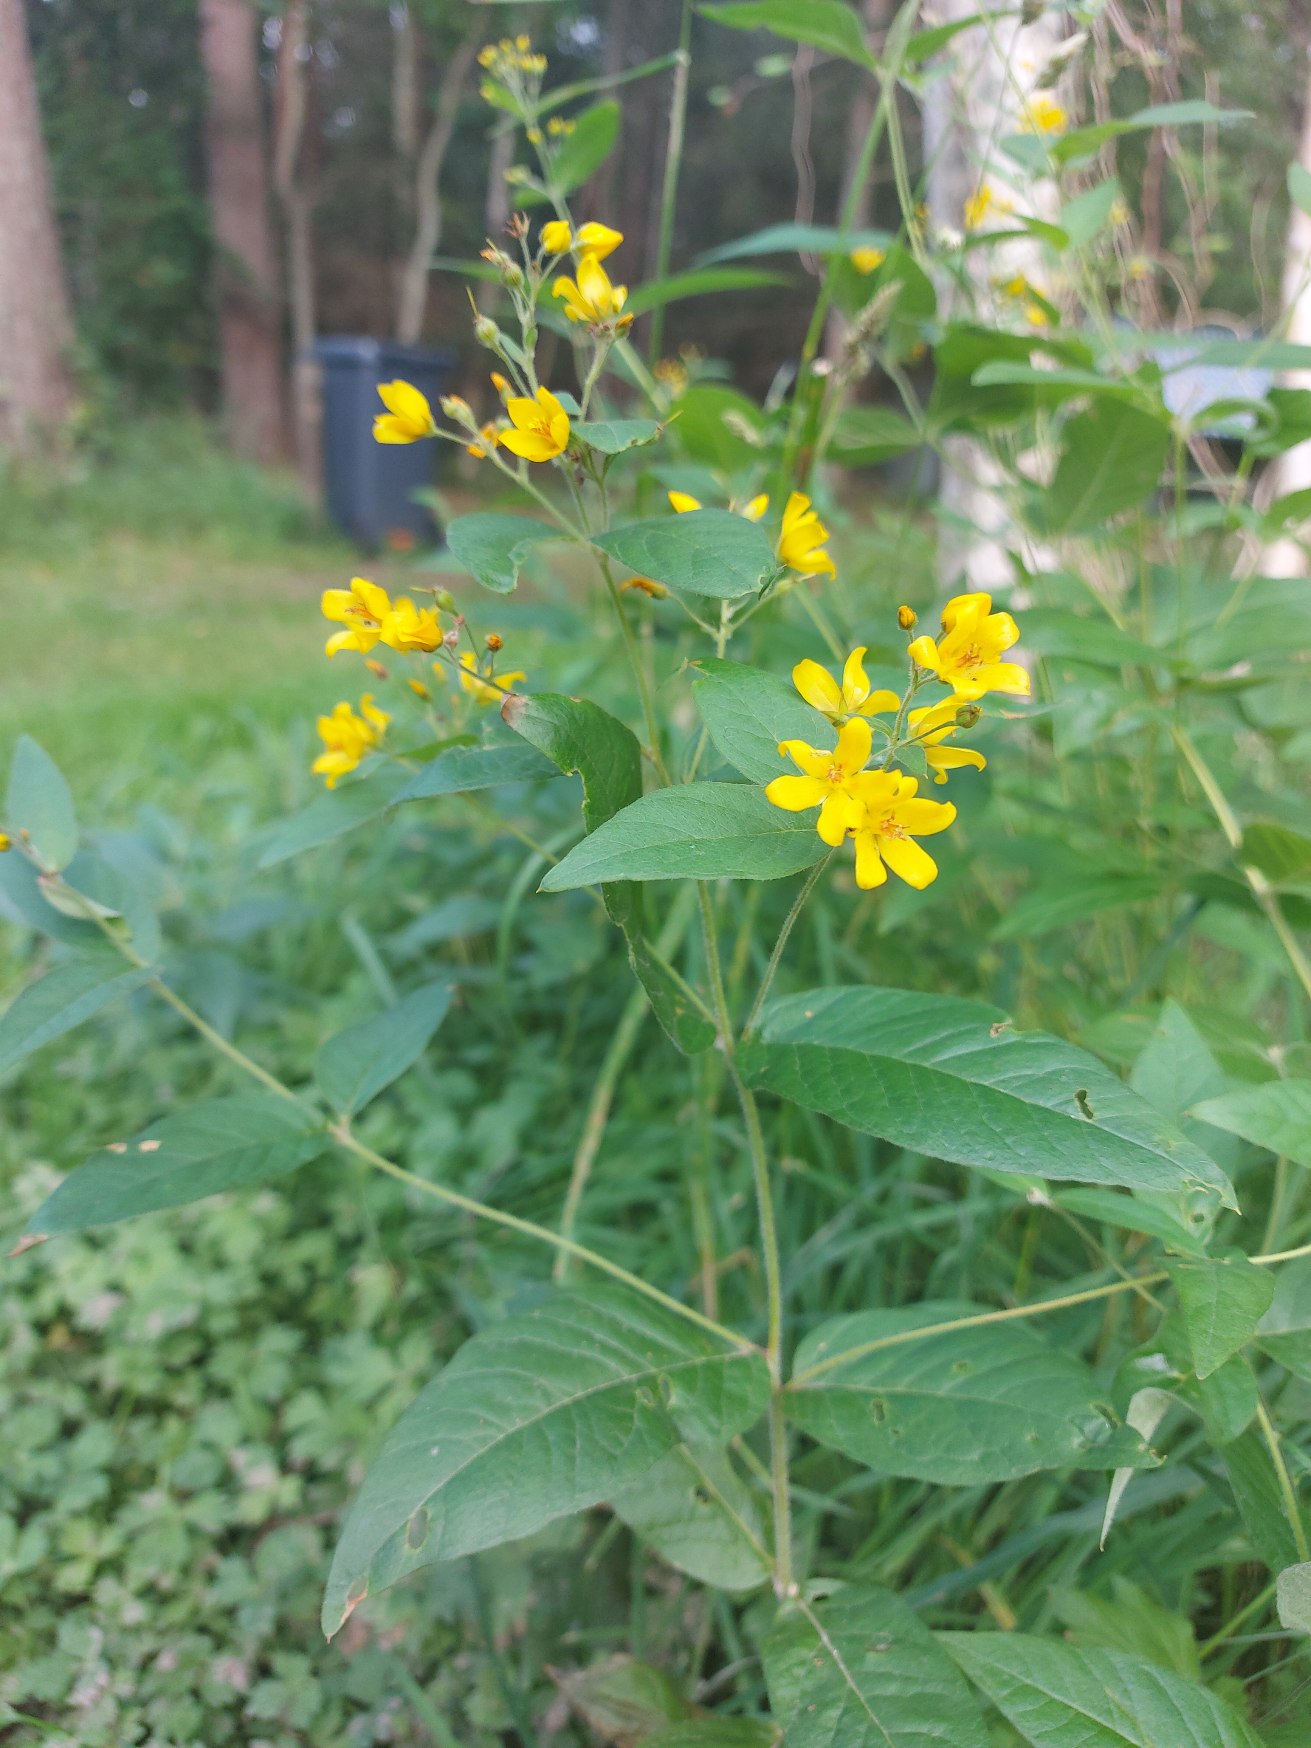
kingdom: Plantae
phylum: Tracheophyta
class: Magnoliopsida
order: Ericales
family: Primulaceae
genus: Lysimachia
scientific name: Lysimachia vulgaris
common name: Almindelig fredløs
